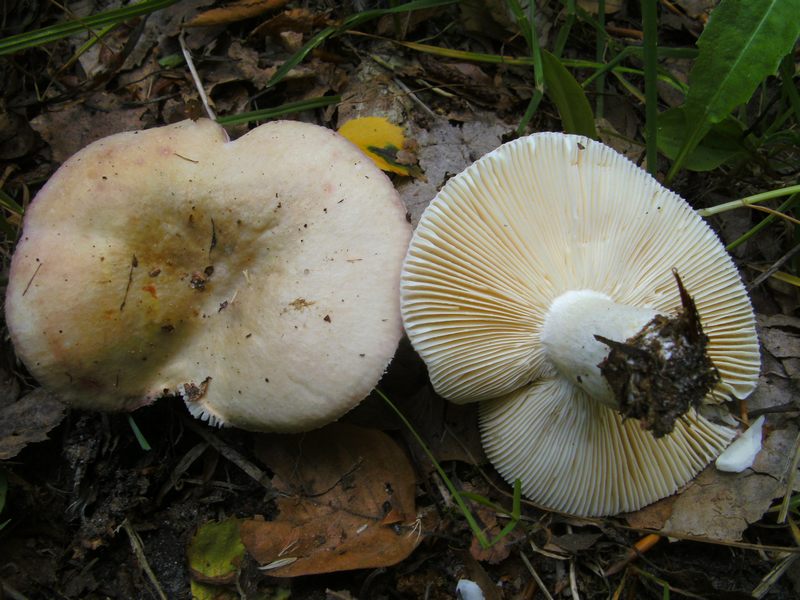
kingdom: Fungi
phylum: Basidiomycota
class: Agaricomycetes
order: Russulales
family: Russulaceae
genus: Russula
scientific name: Russula depallens
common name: falmende skørhat
